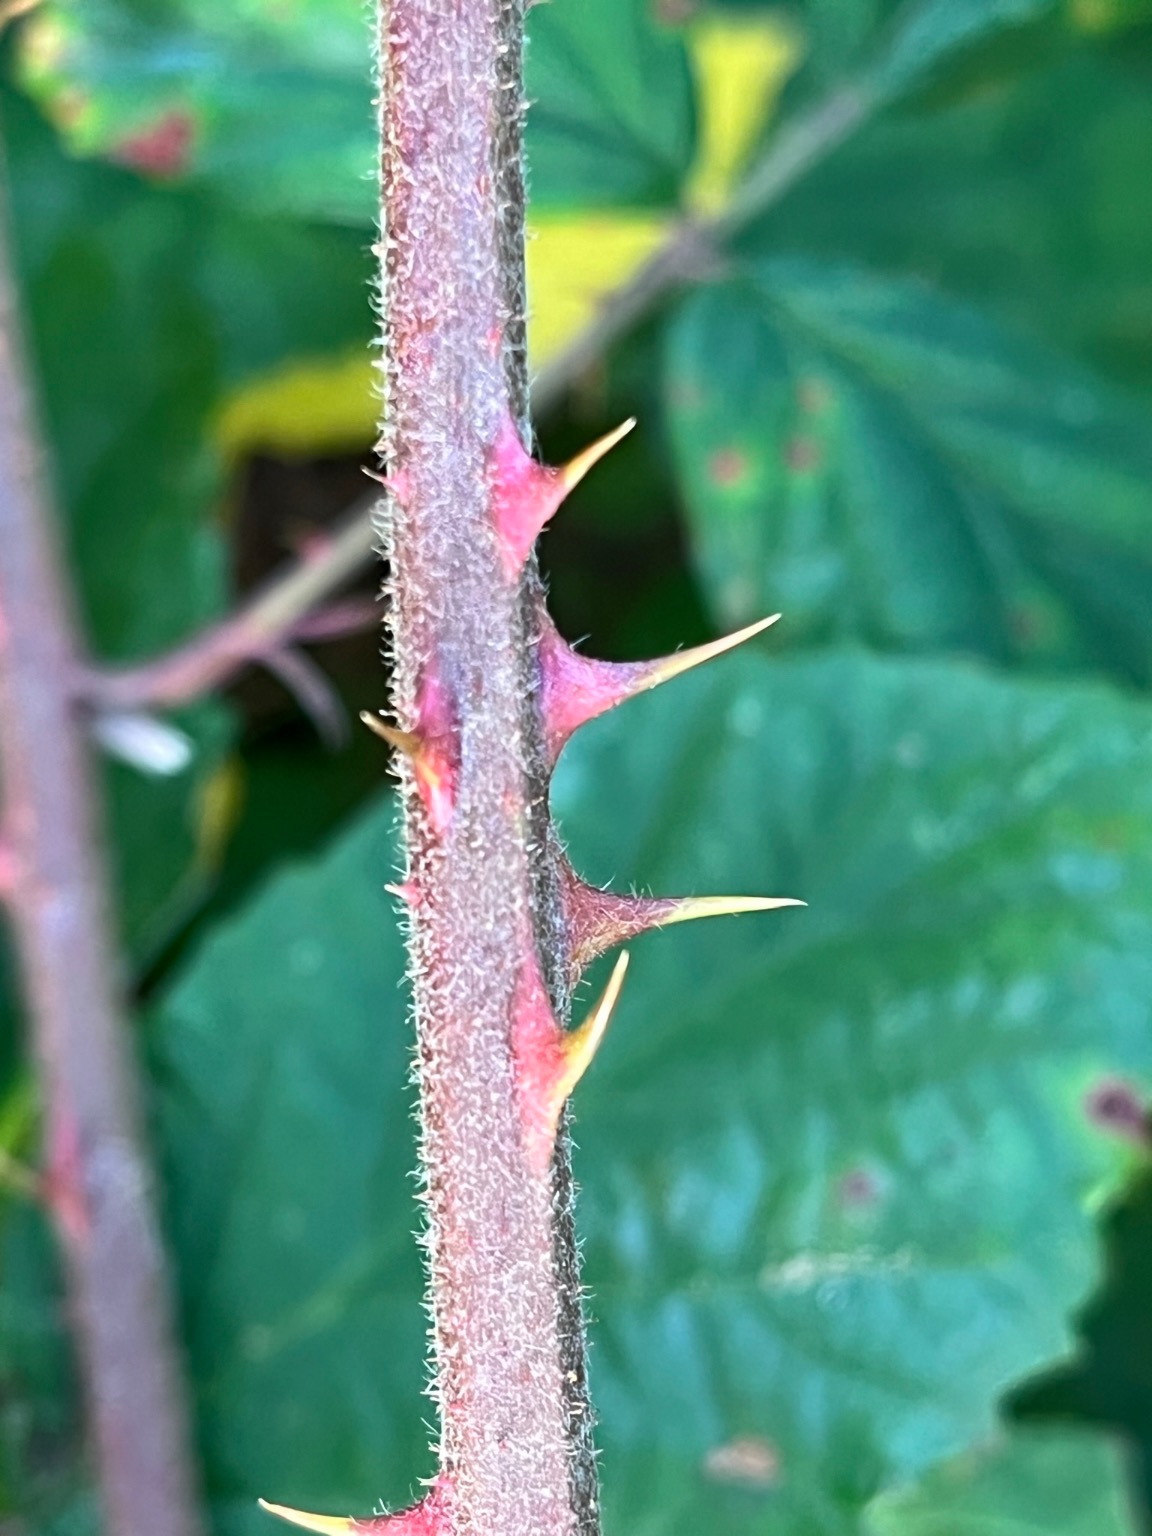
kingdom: Plantae
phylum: Tracheophyta
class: Magnoliopsida
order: Rosales
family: Rosaceae
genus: Rubus
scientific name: Rubus radula
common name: Rasperu brombær
